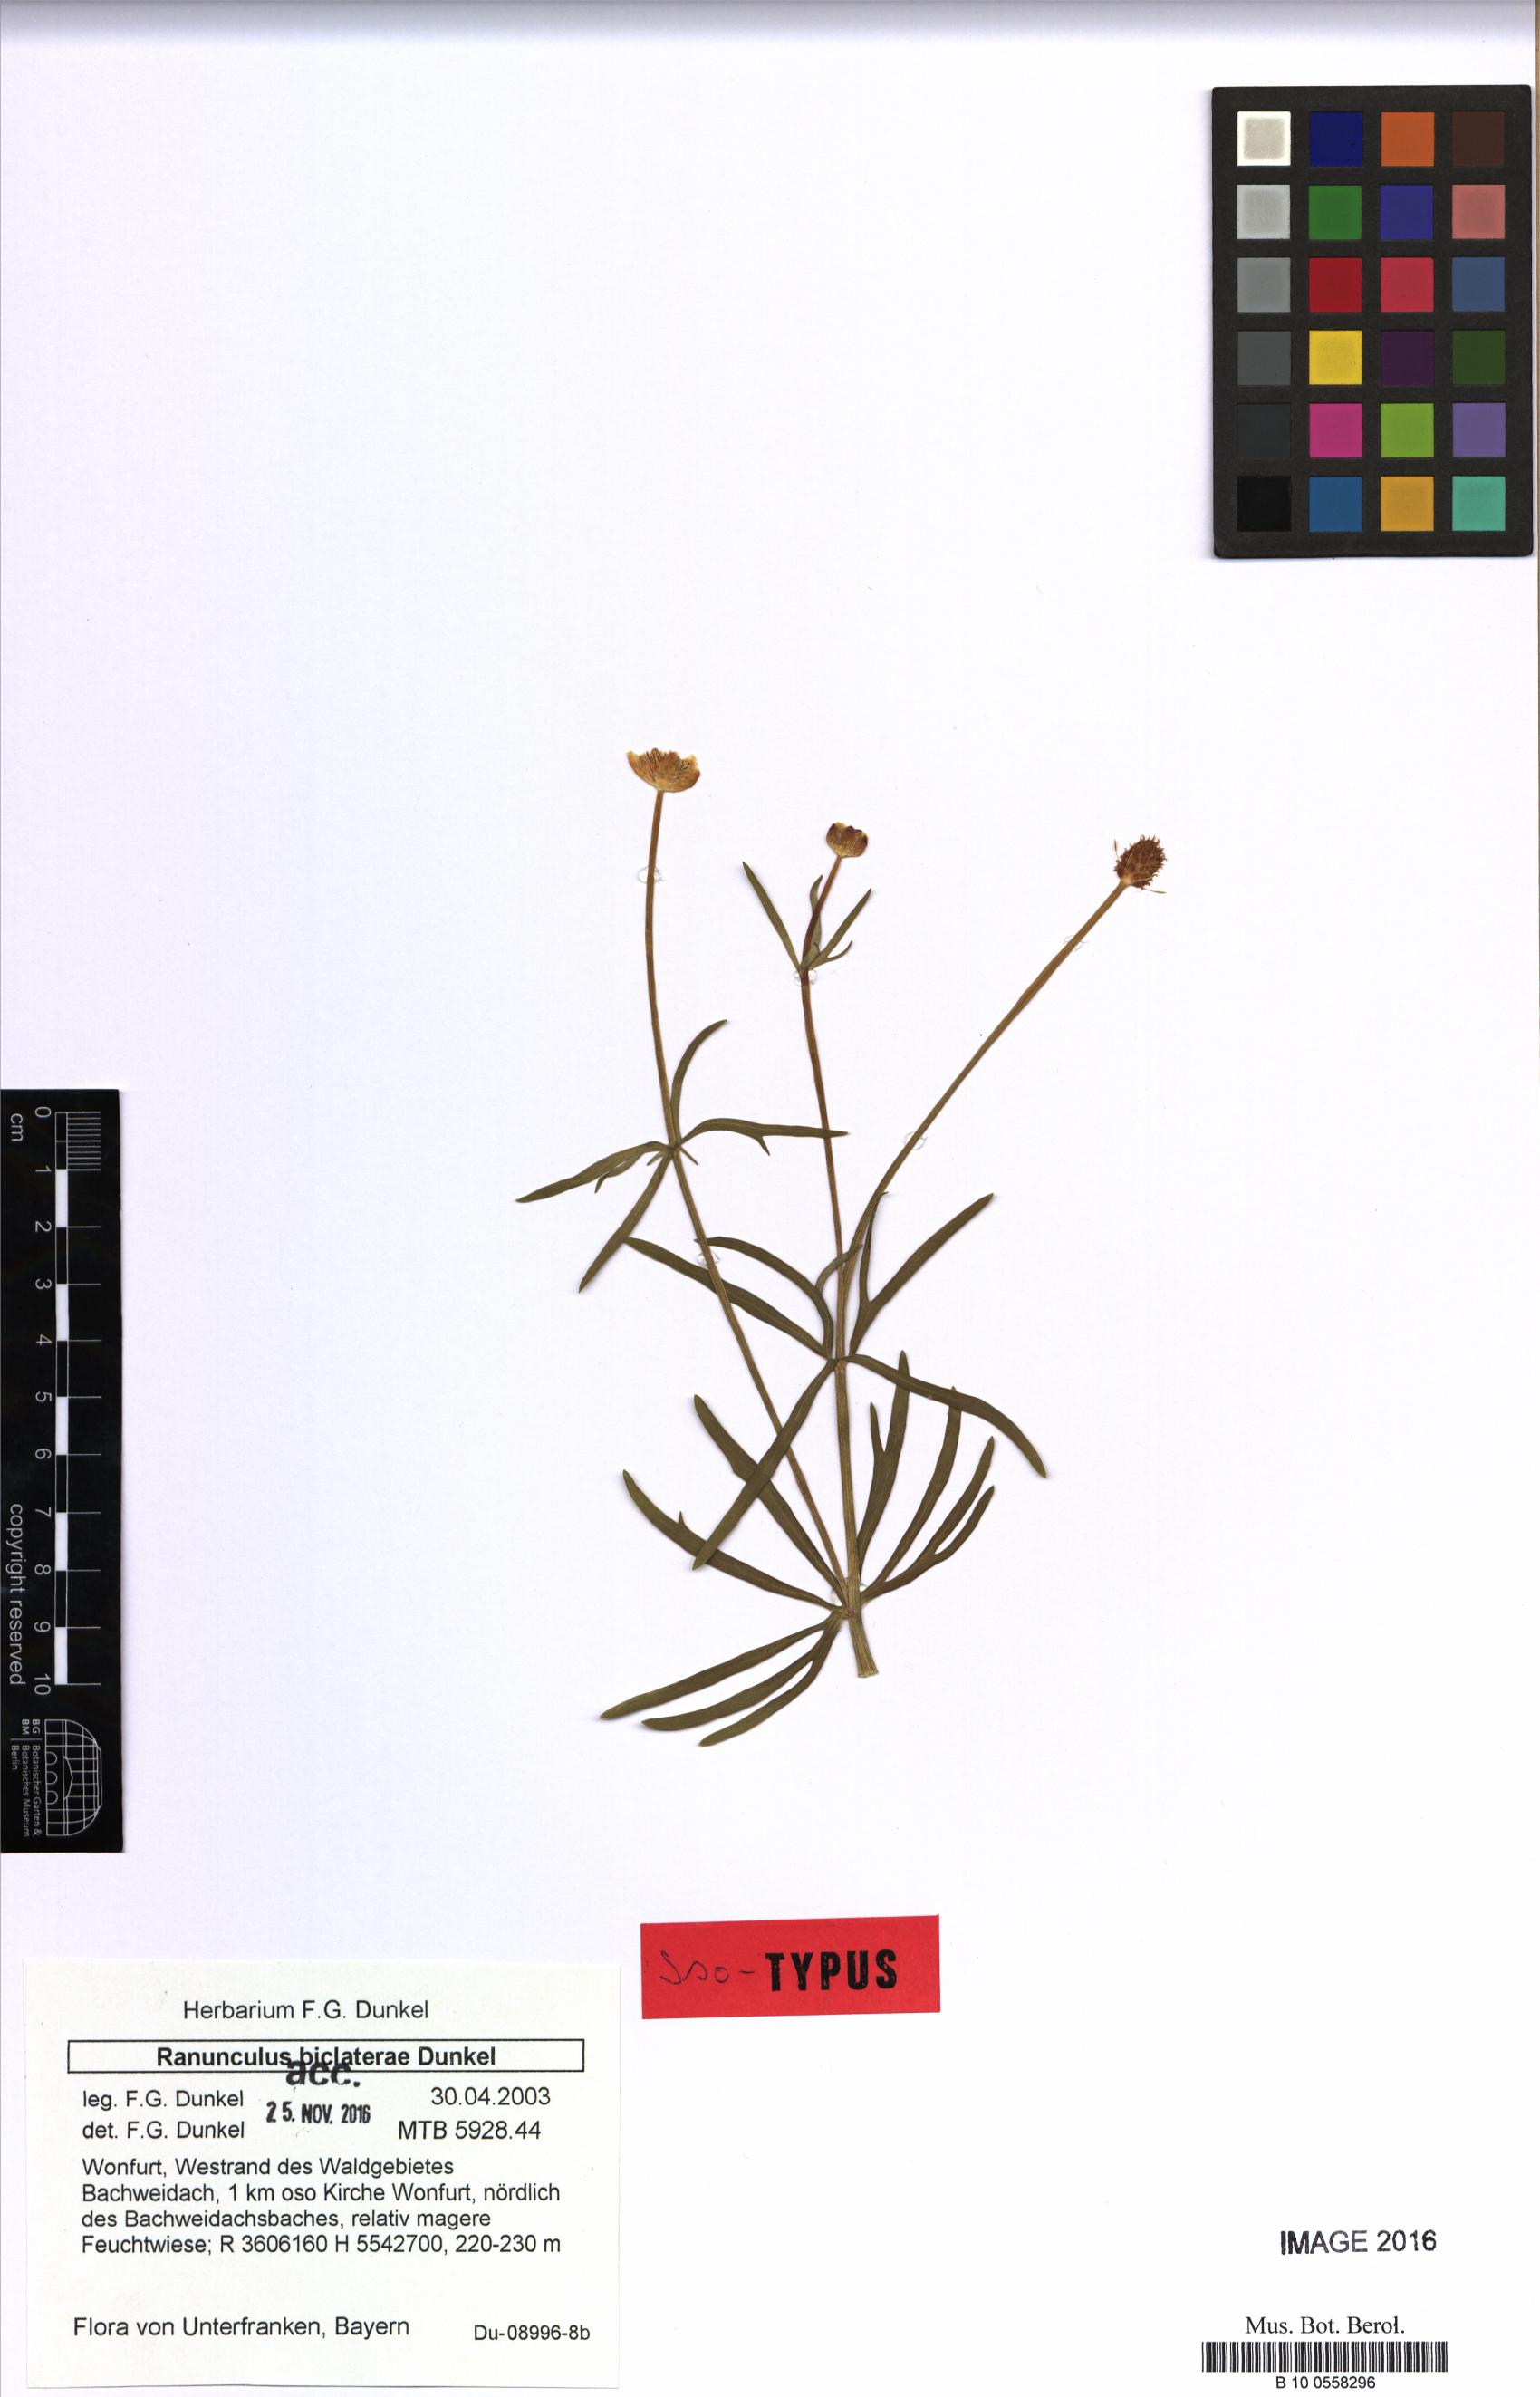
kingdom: Plantae
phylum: Tracheophyta
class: Magnoliopsida
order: Ranunculales
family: Ranunculaceae
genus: Ranunculus
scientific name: Ranunculus biclaterae
